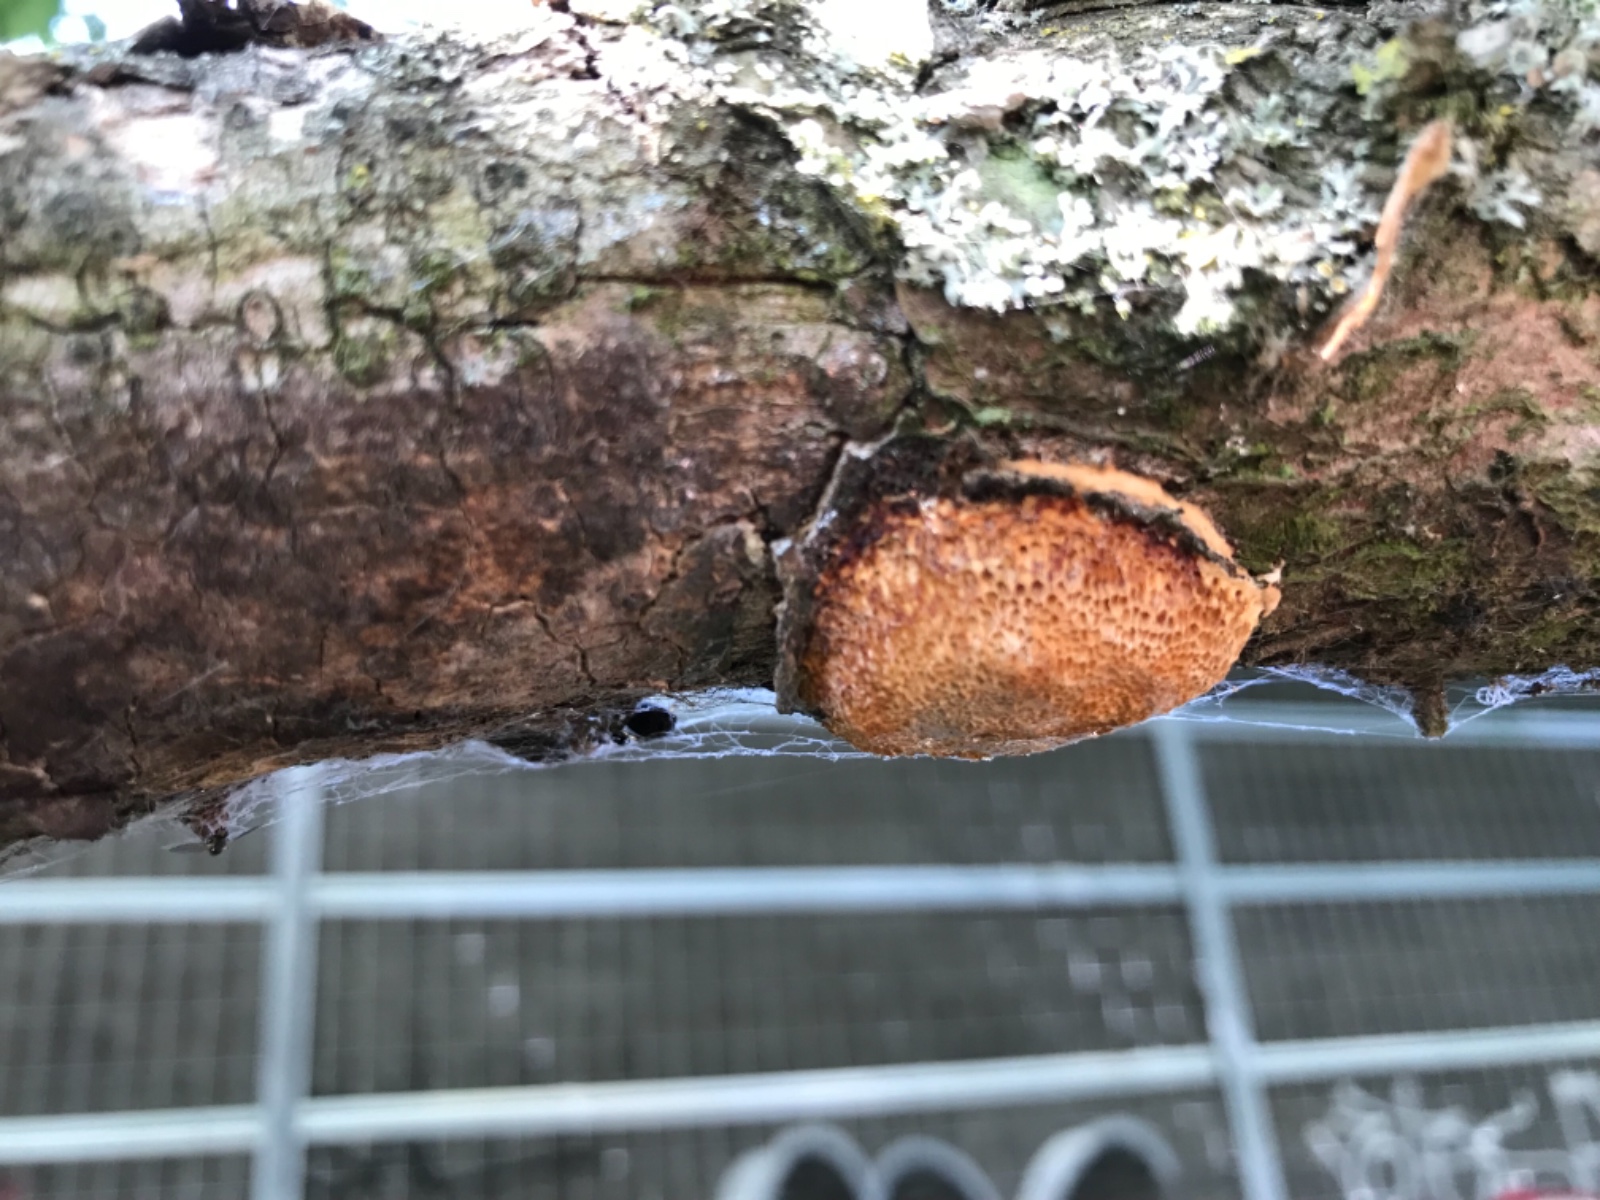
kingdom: Fungi
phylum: Basidiomycota
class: Agaricomycetes
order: Polyporales
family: Polyporaceae
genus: Szczepkamyces
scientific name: Szczepkamyces campestris
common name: hasselporesvamp
